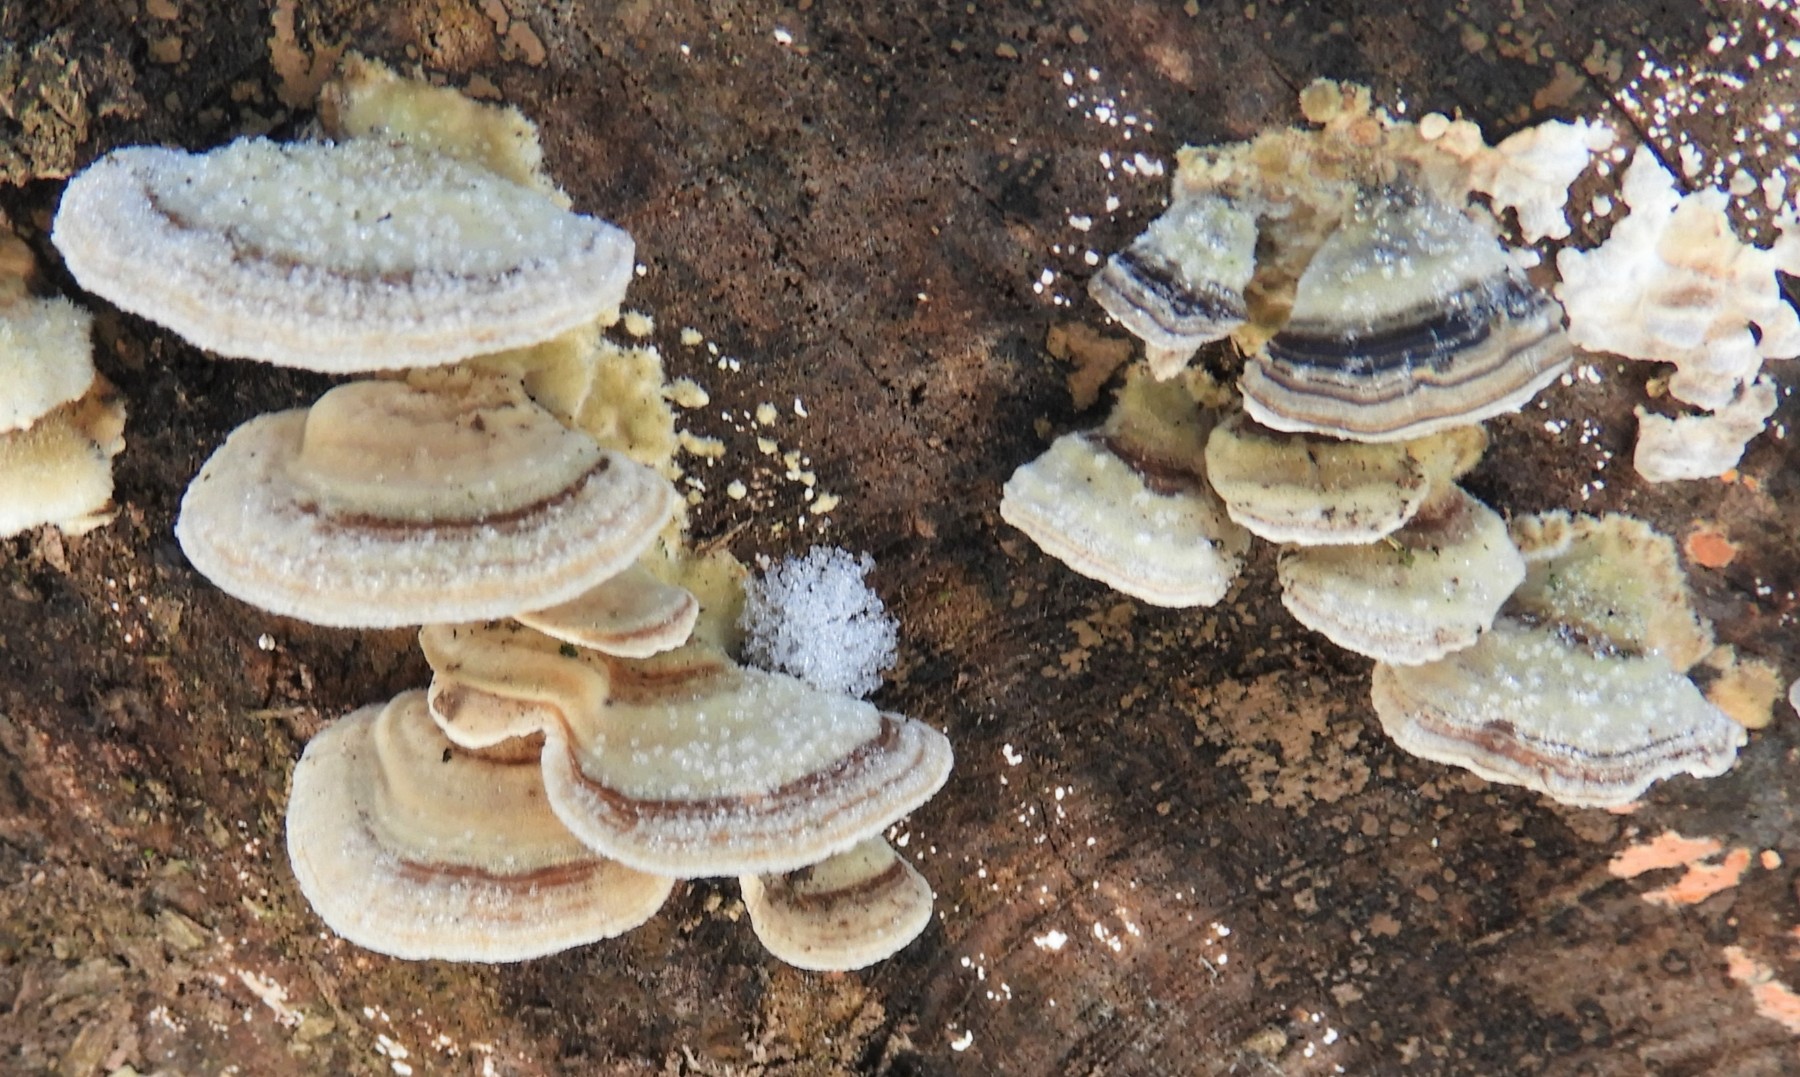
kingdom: Fungi
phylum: Basidiomycota
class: Agaricomycetes
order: Polyporales
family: Polyporaceae
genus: Trametes
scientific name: Trametes
